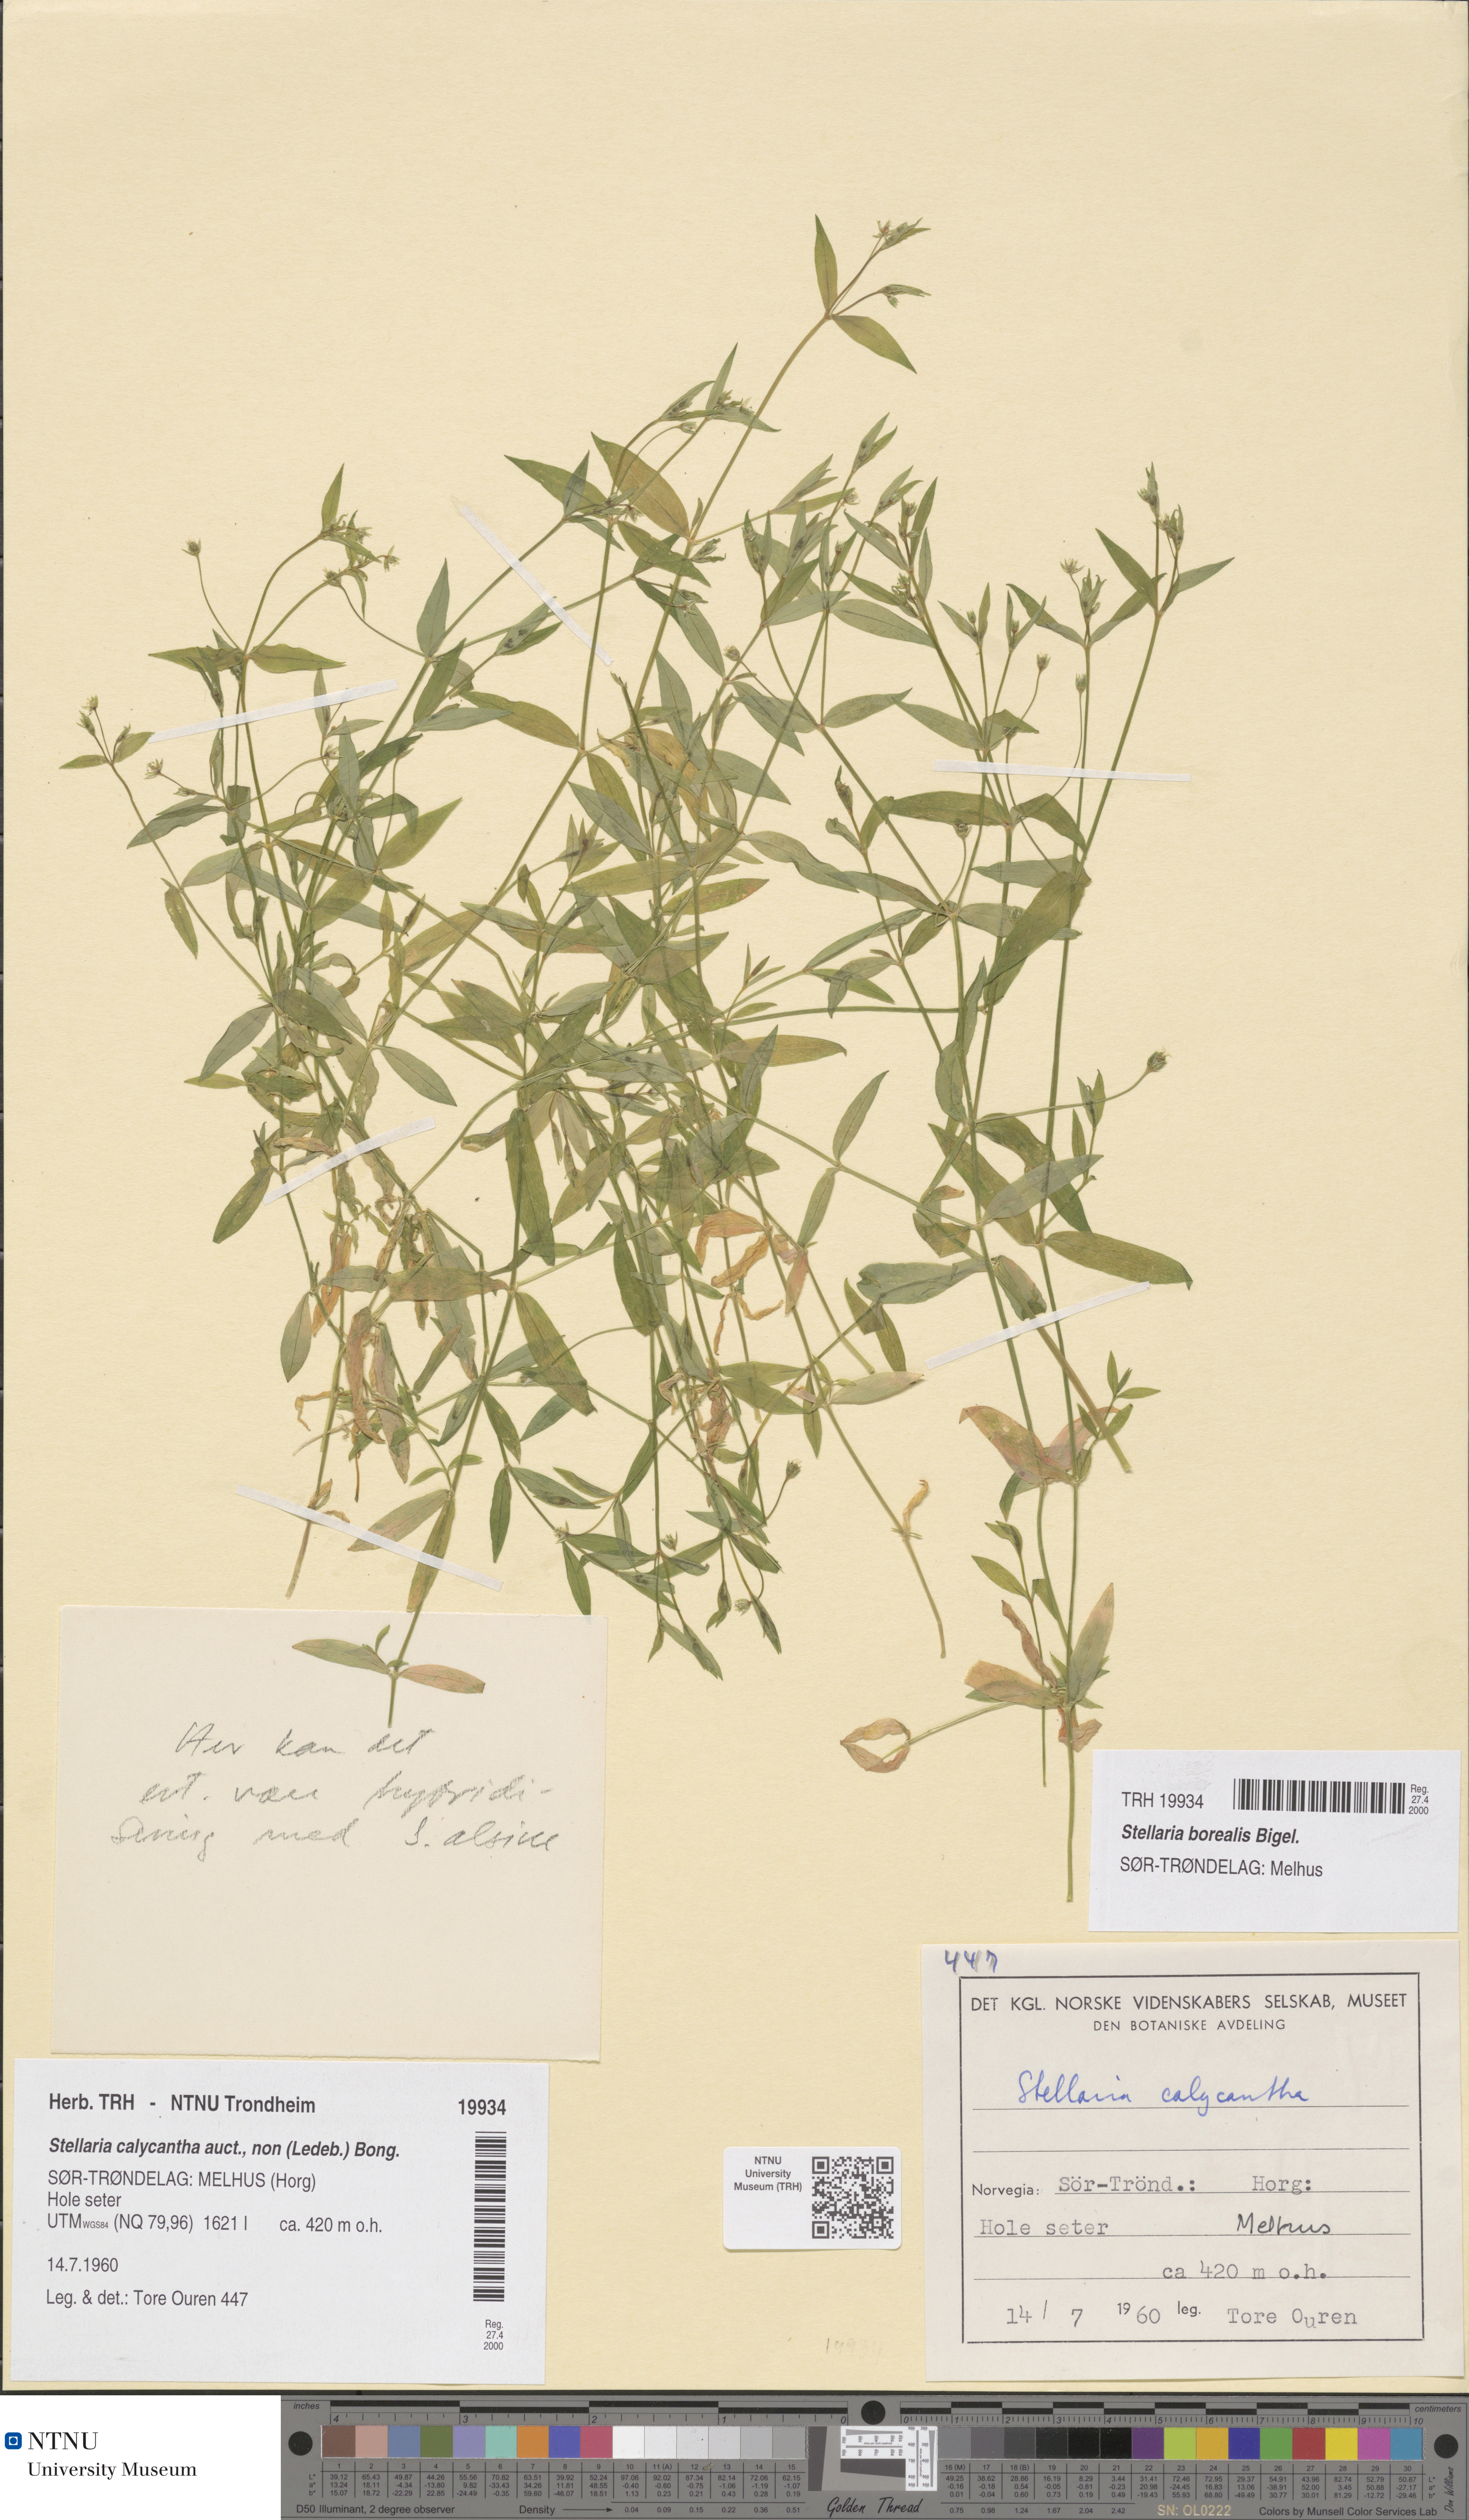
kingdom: Plantae
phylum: Tracheophyta
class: Magnoliopsida
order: Caryophyllales
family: Caryophyllaceae
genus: Stellaria
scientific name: Stellaria borealis
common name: Boreal starwort
